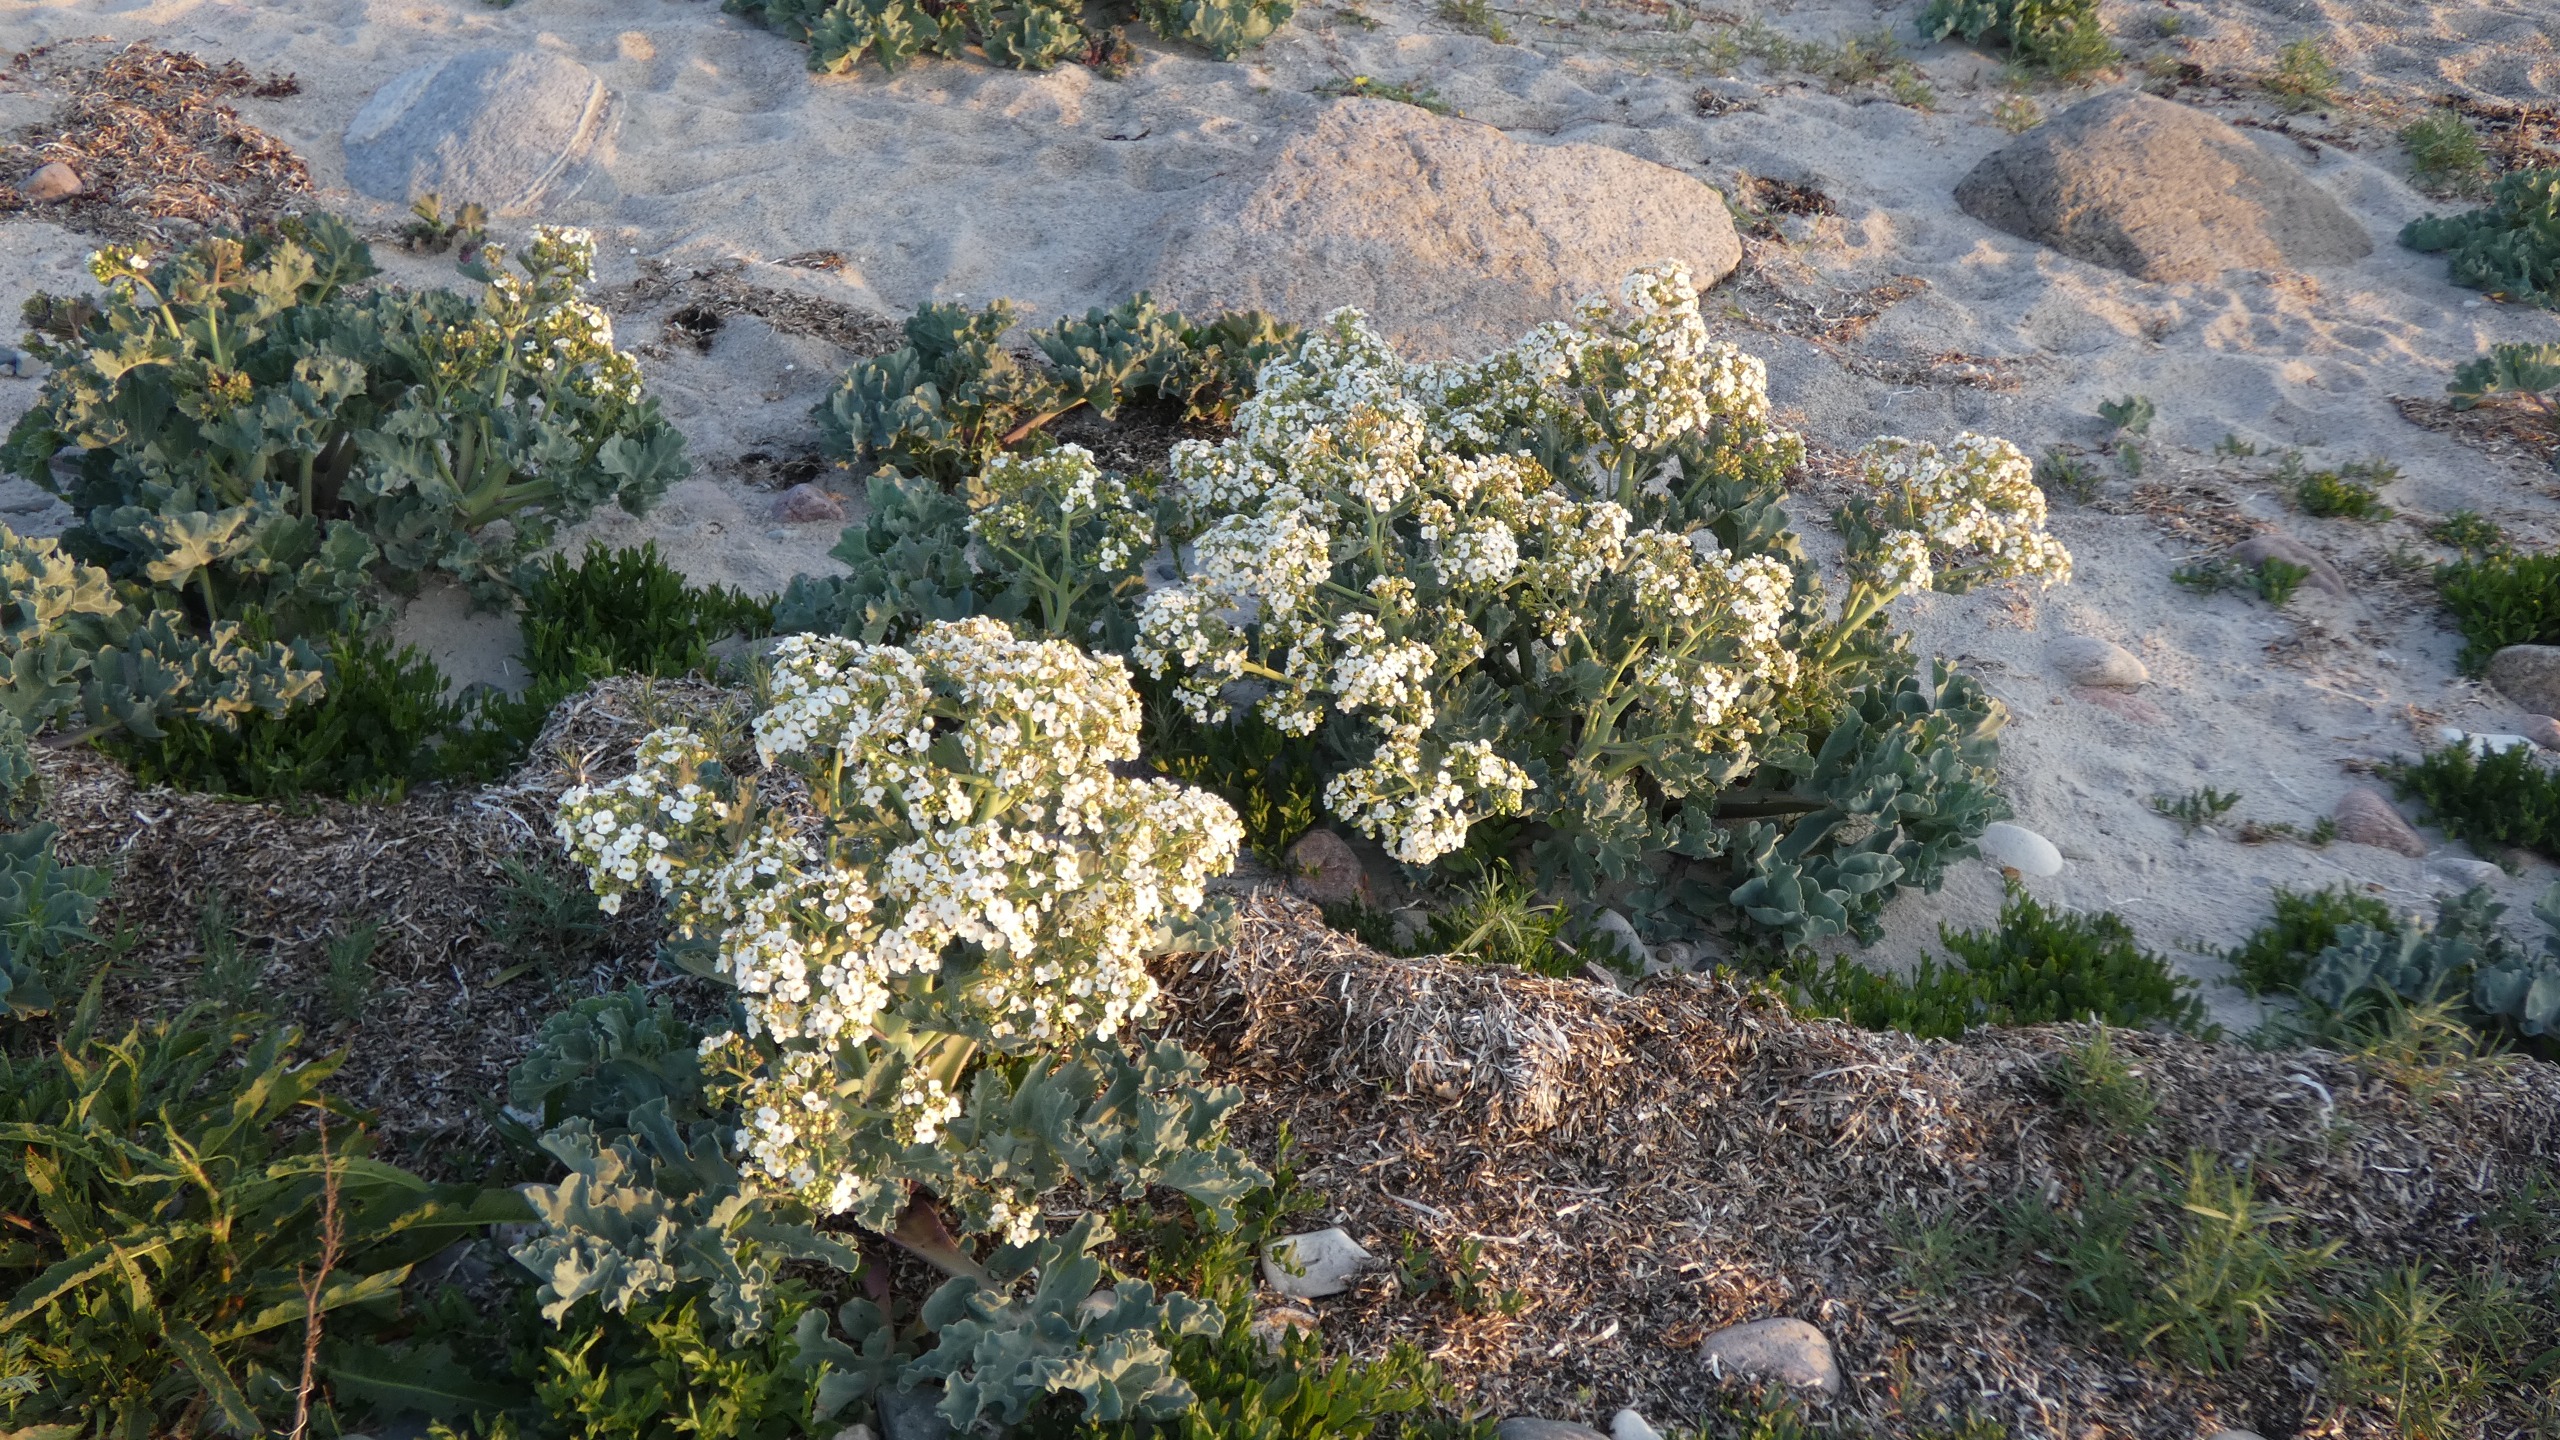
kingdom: Plantae
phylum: Tracheophyta
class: Magnoliopsida
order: Brassicales
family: Brassicaceae
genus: Crambe
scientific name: Crambe maritima
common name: Strandkål
